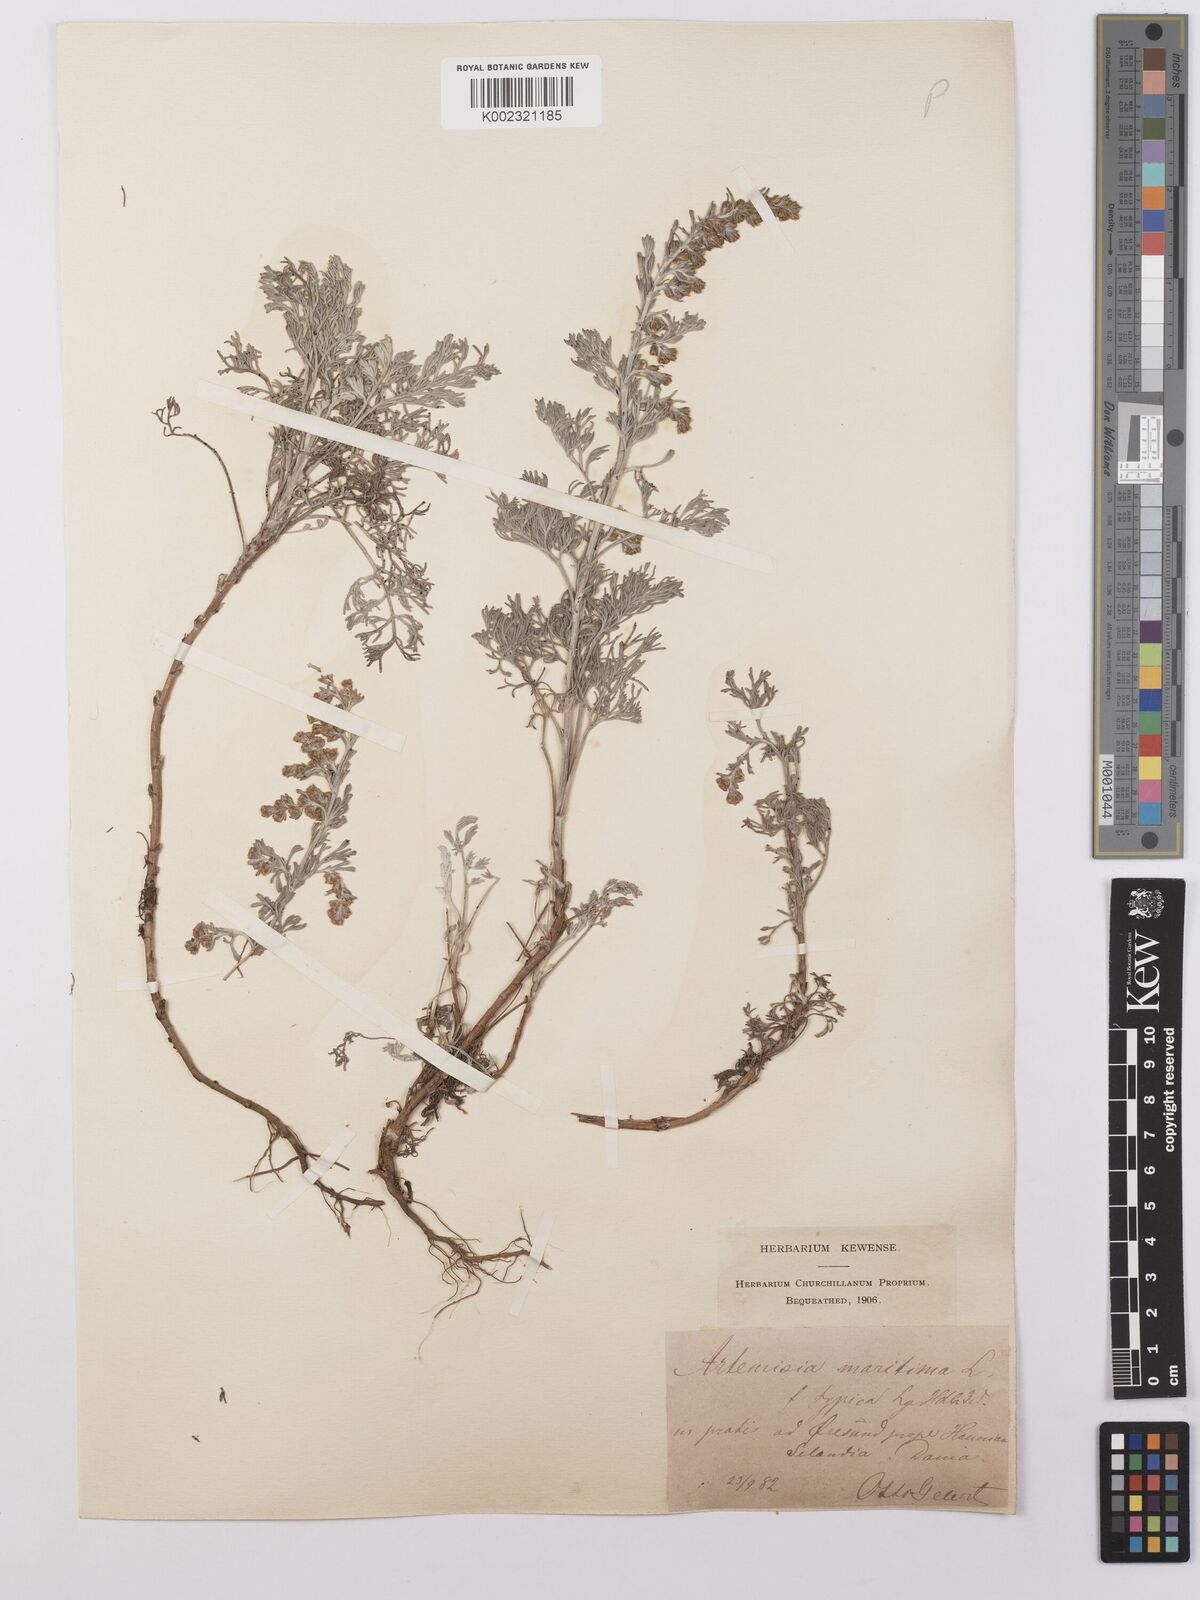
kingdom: Plantae
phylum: Tracheophyta
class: Magnoliopsida
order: Asterales
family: Asteraceae
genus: Artemisia
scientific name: Artemisia maritima
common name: Wormseed
